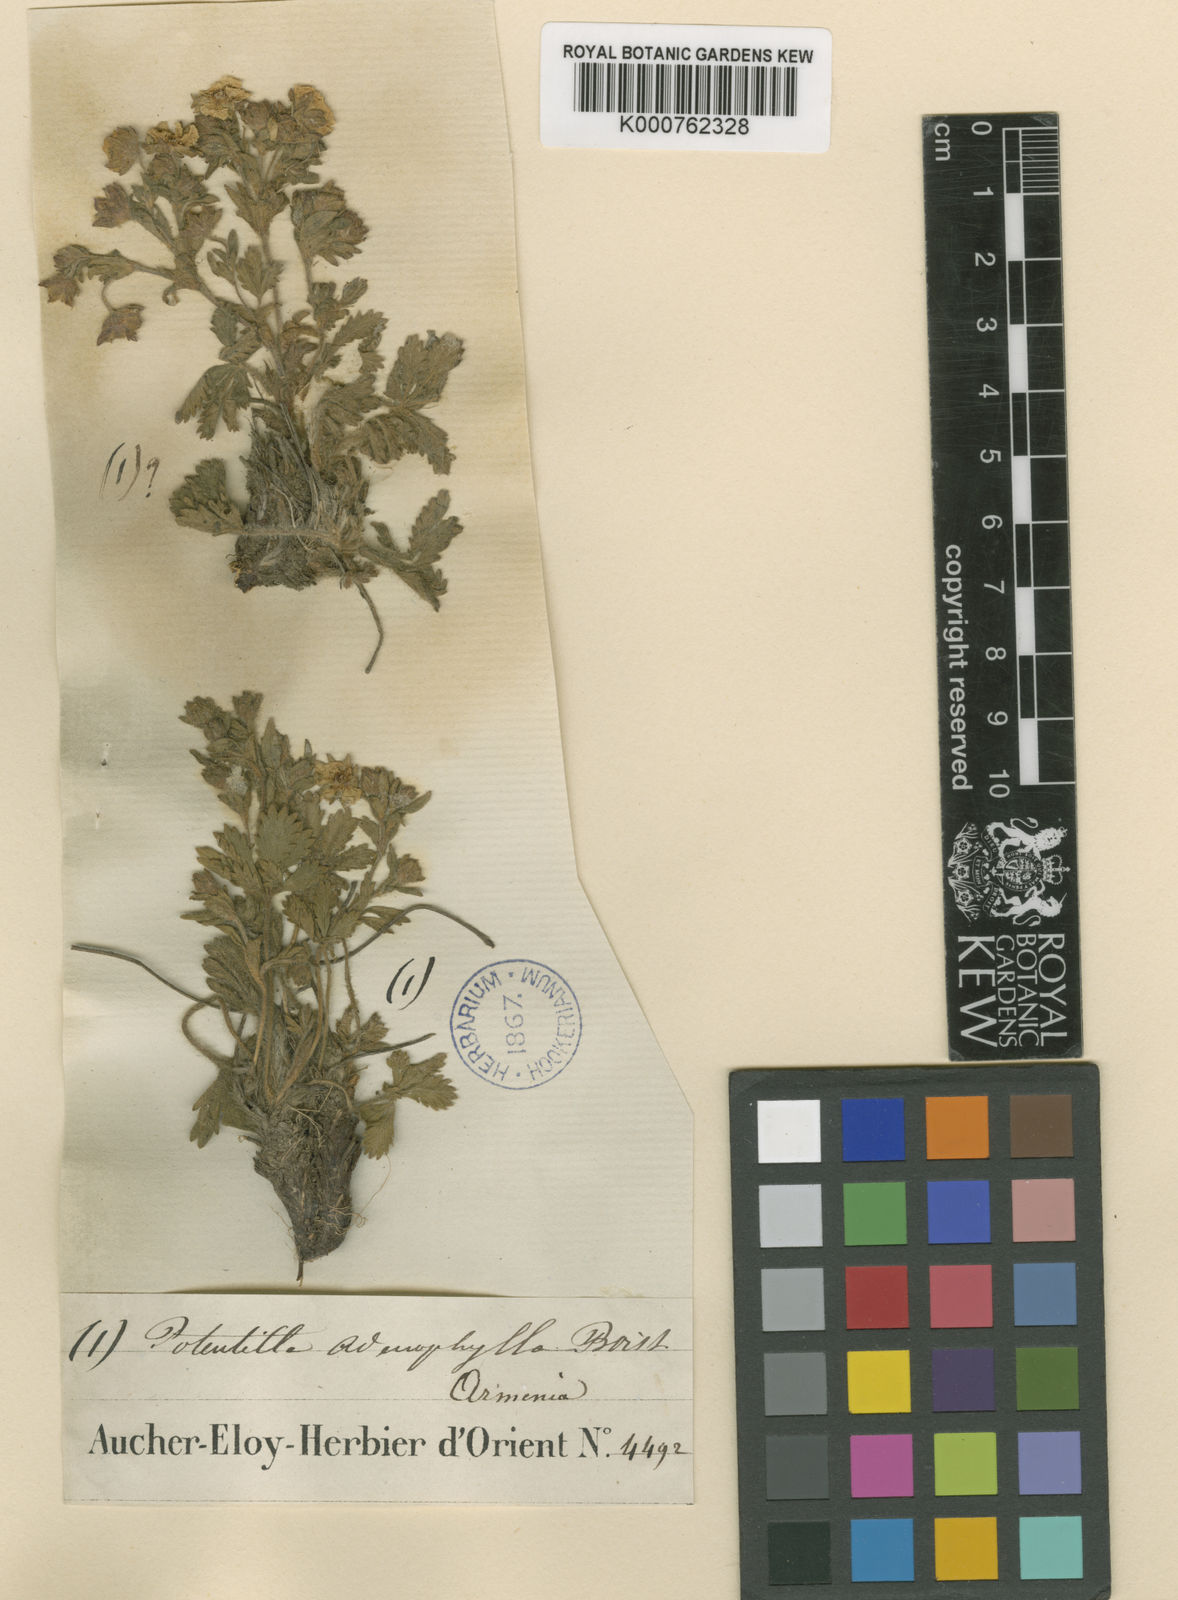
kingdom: Plantae
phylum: Tracheophyta
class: Magnoliopsida
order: Rosales
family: Rosaceae
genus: Potentilla
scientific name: Potentilla humifusa
